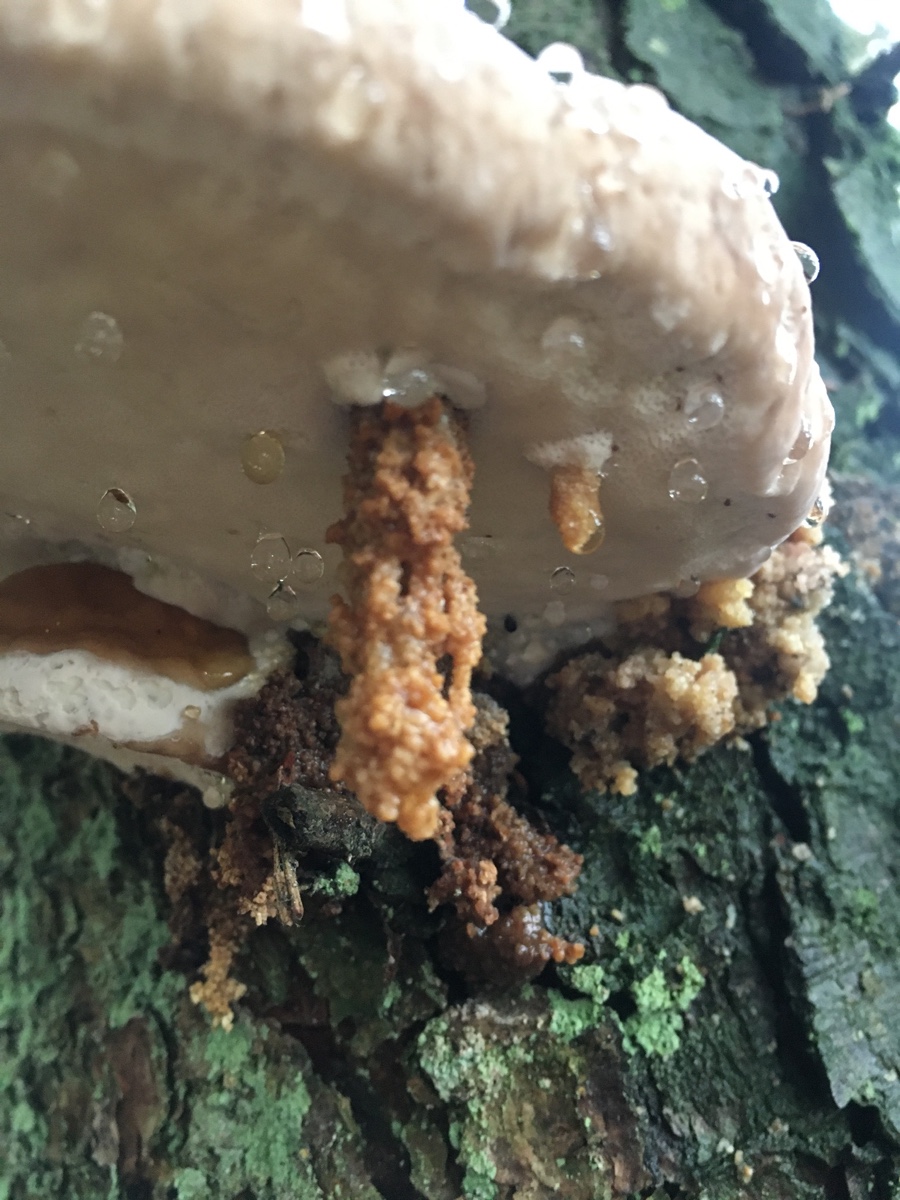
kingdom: Fungi
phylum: Basidiomycota
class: Agaricomycetes
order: Polyporales
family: Fomitopsidaceae
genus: Fomitopsis
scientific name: Fomitopsis pinicola
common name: randbæltet hovporesvamp
